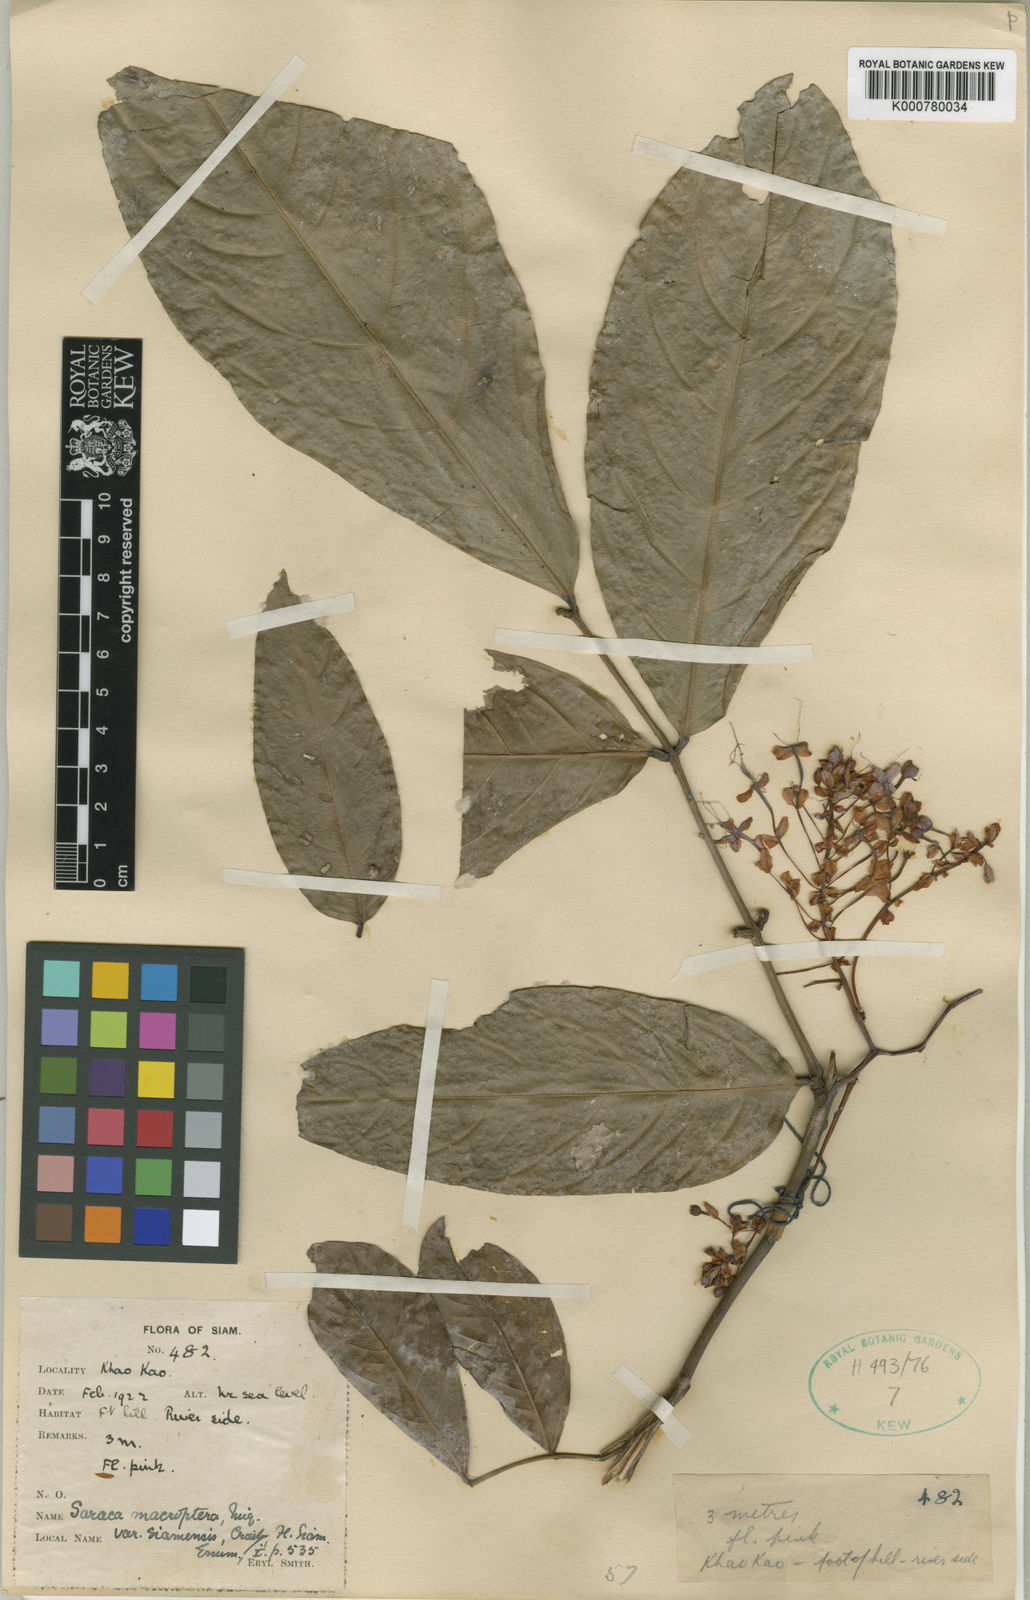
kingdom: Plantae
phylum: Tracheophyta
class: Magnoliopsida
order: Fabales
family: Fabaceae
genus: Saraca
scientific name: Saraca declinata
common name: Red saraca
